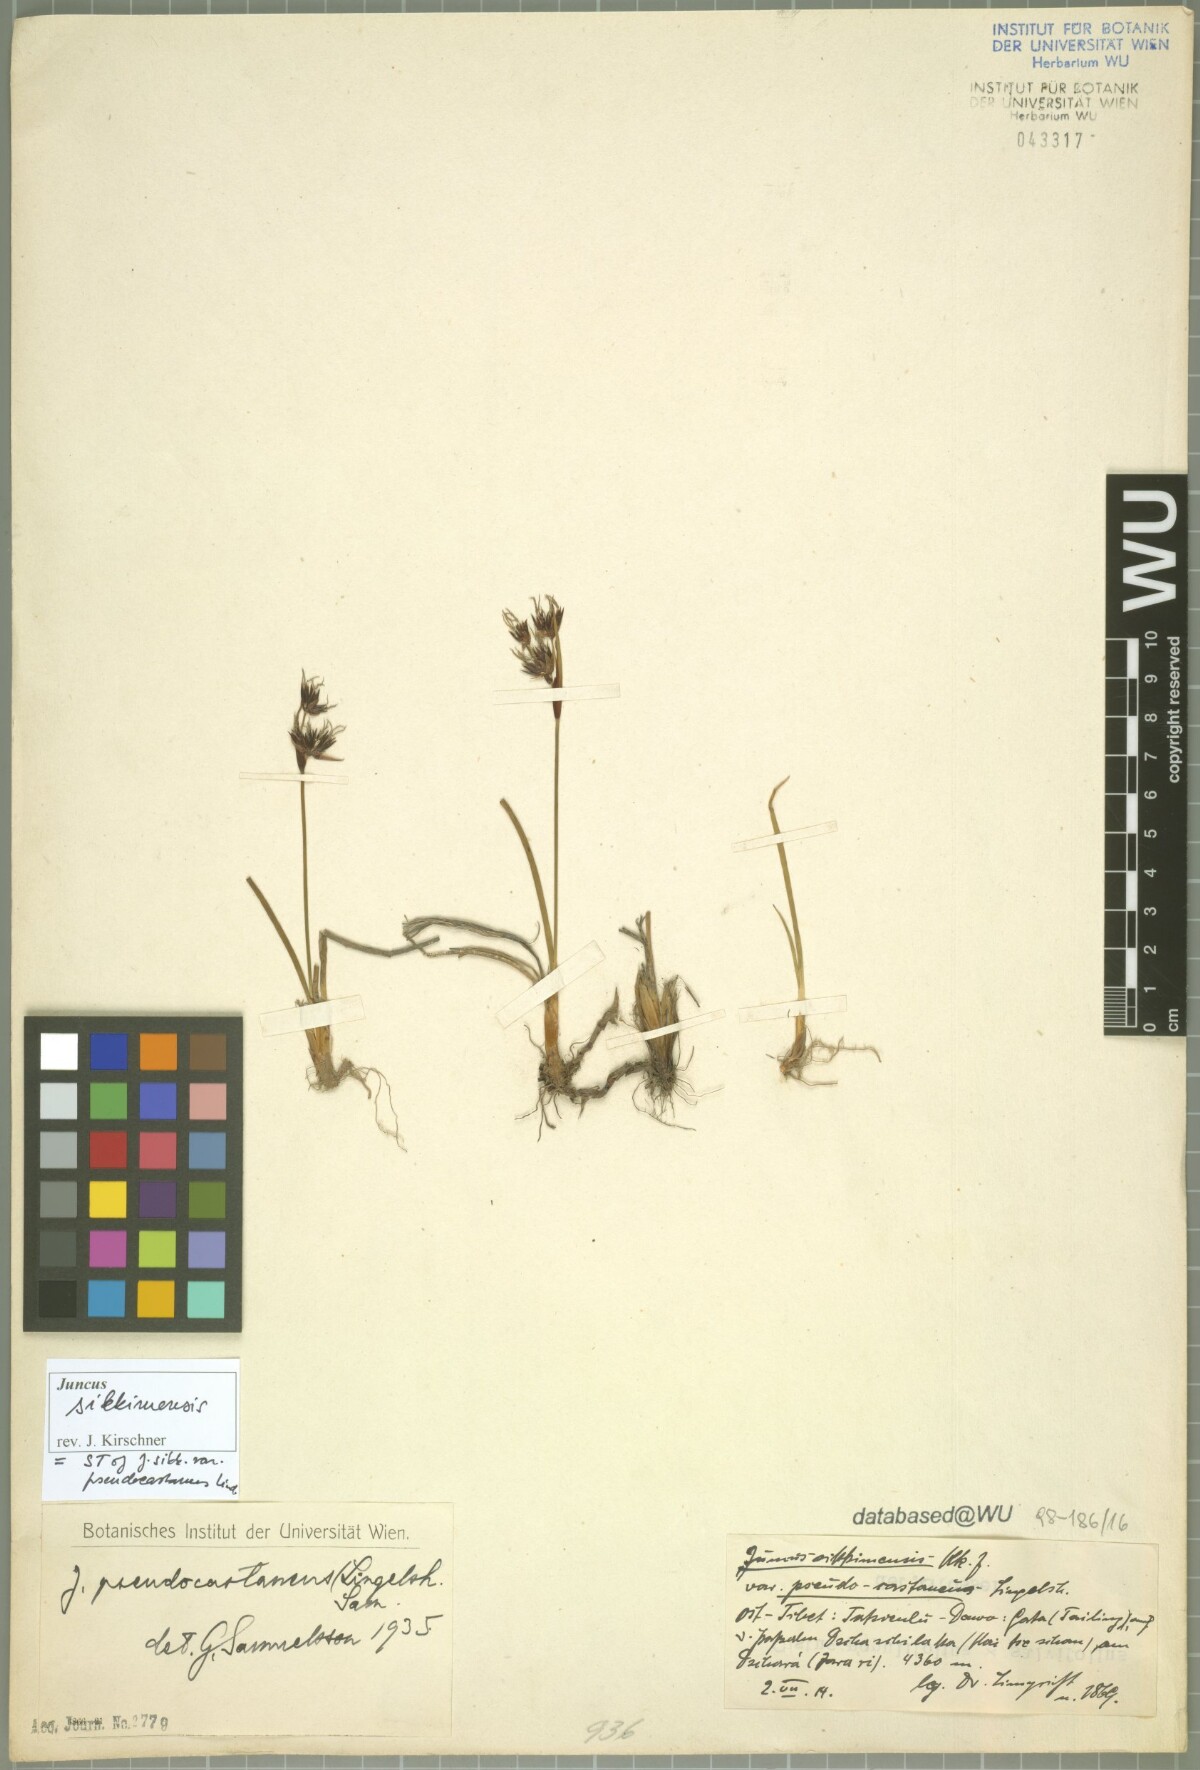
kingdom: Plantae
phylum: Tracheophyta
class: Liliopsida
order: Poales
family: Juncaceae
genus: Juncus
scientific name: Juncus sikkimensis
